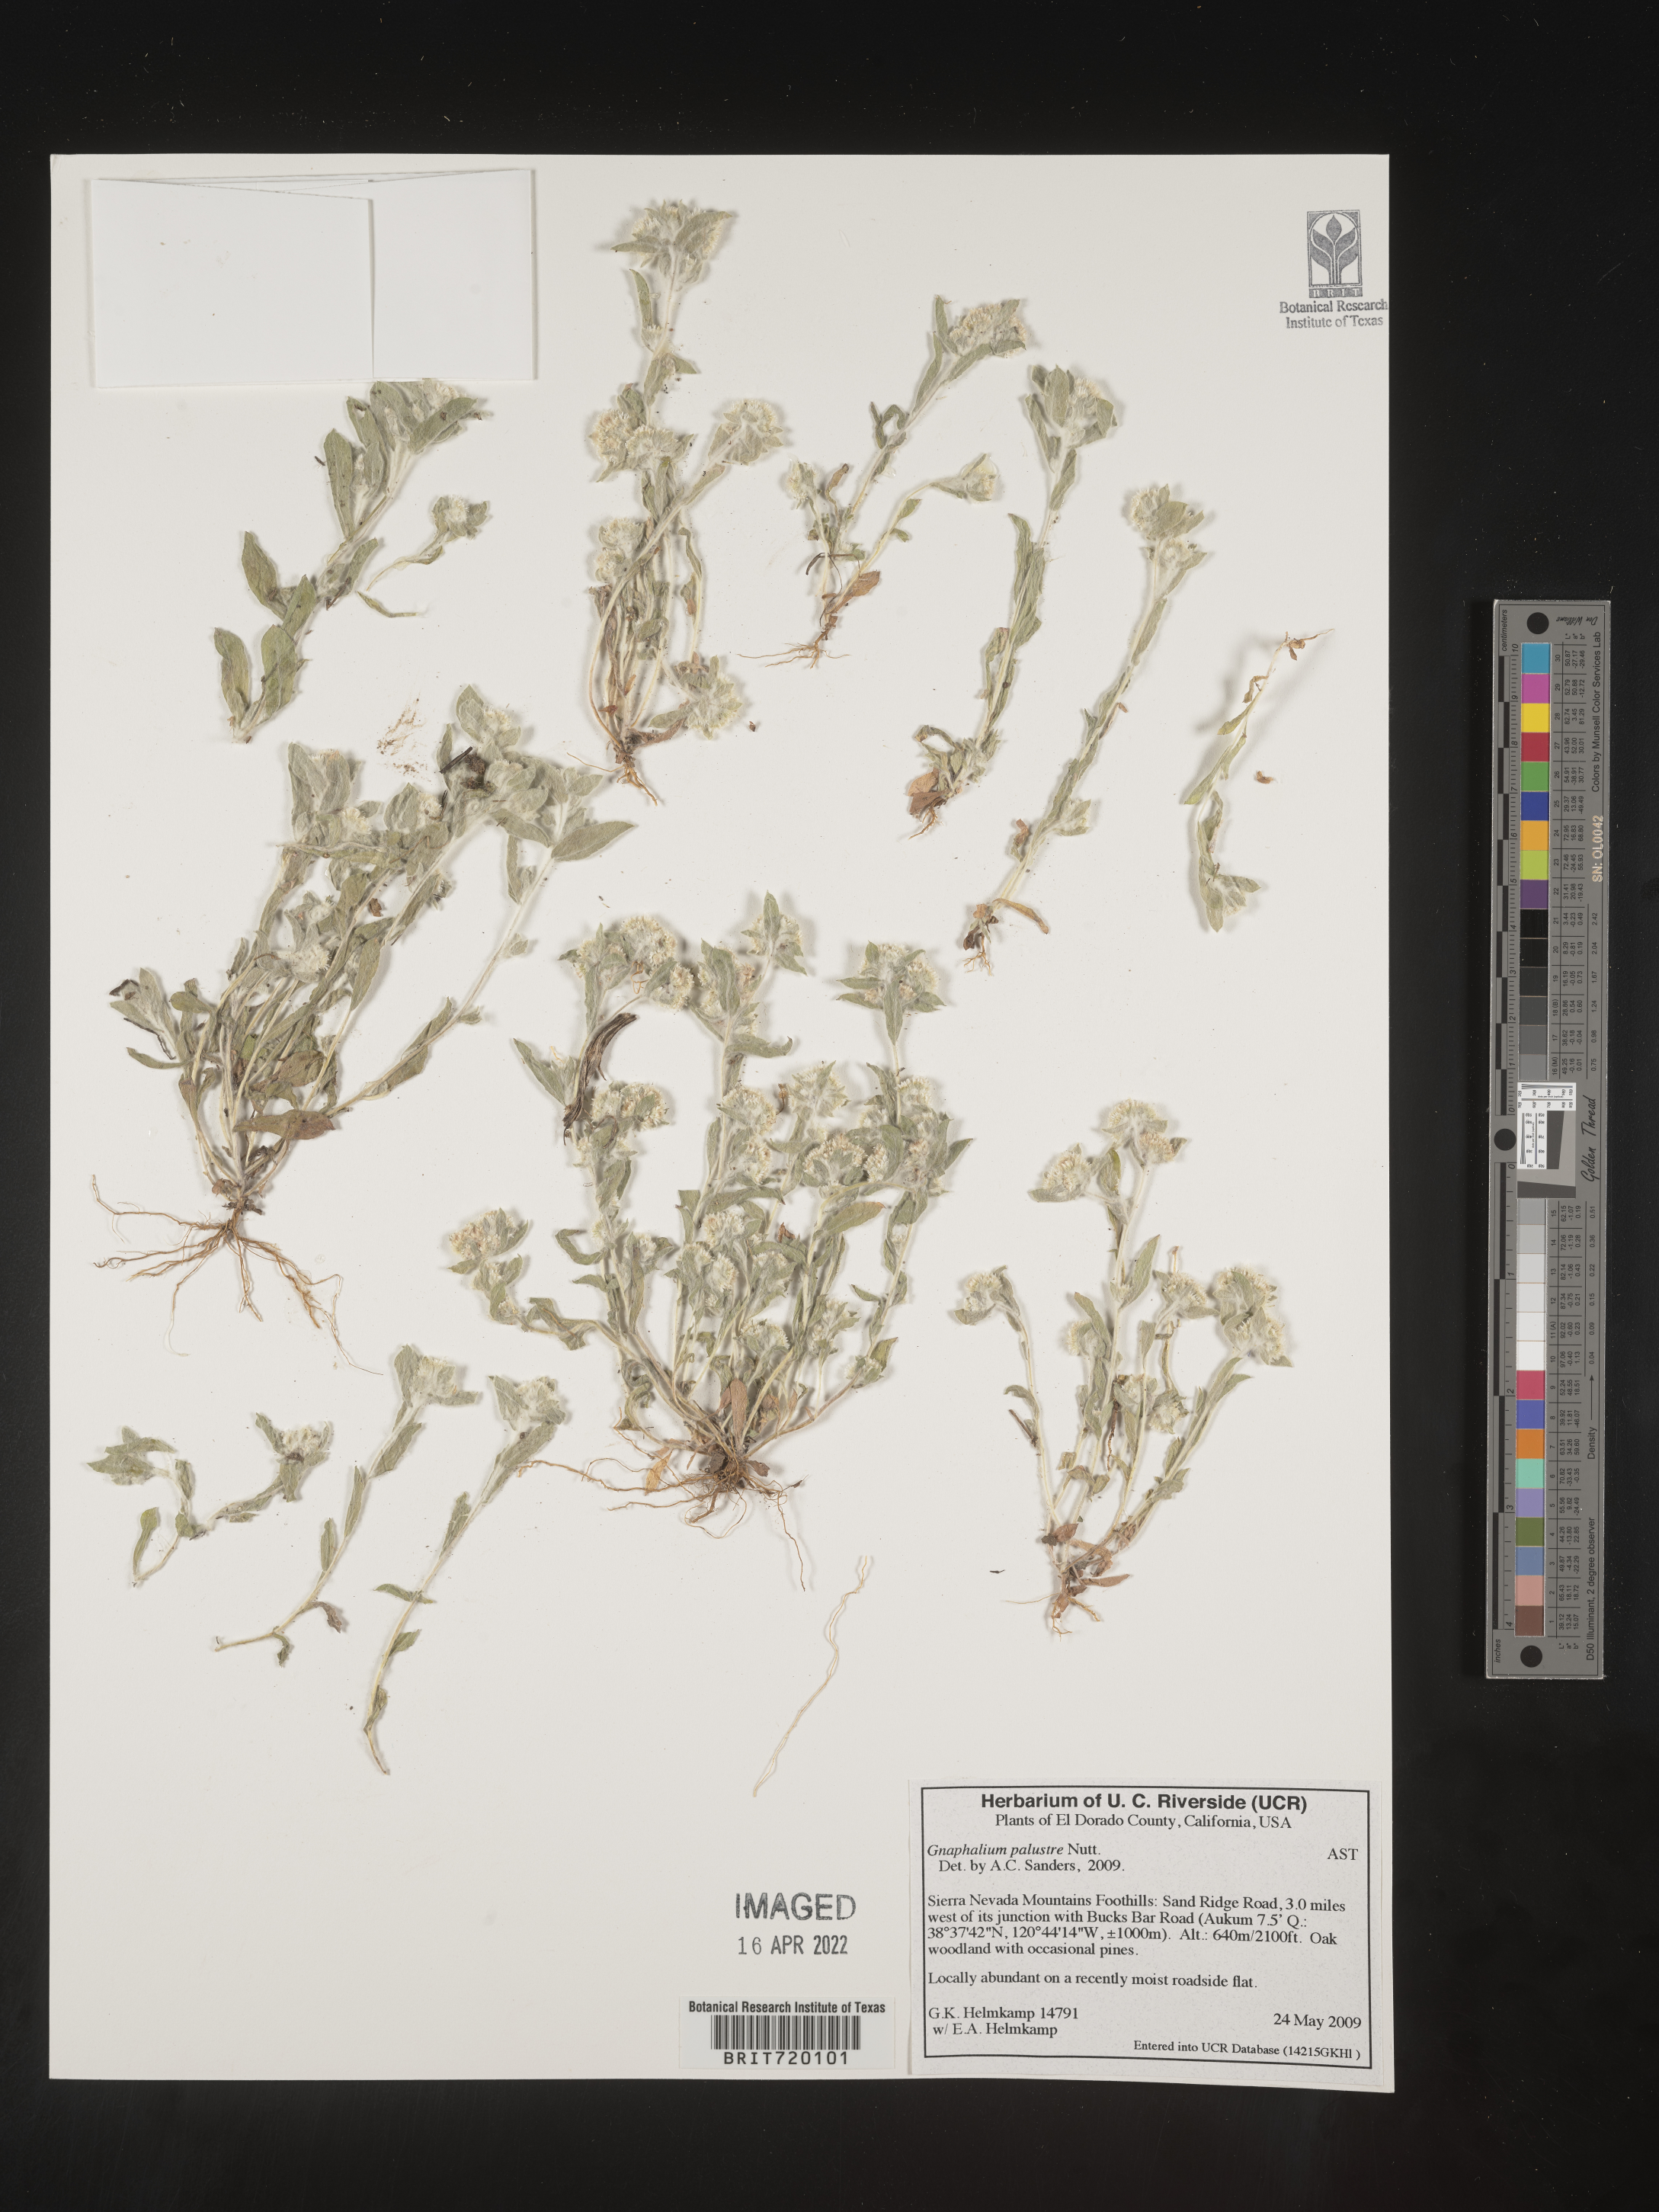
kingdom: Plantae
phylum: Tracheophyta
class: Magnoliopsida
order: Asterales
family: Asteraceae
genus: Gnaphalium
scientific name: Gnaphalium palustre
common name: Western marsh cudweed
